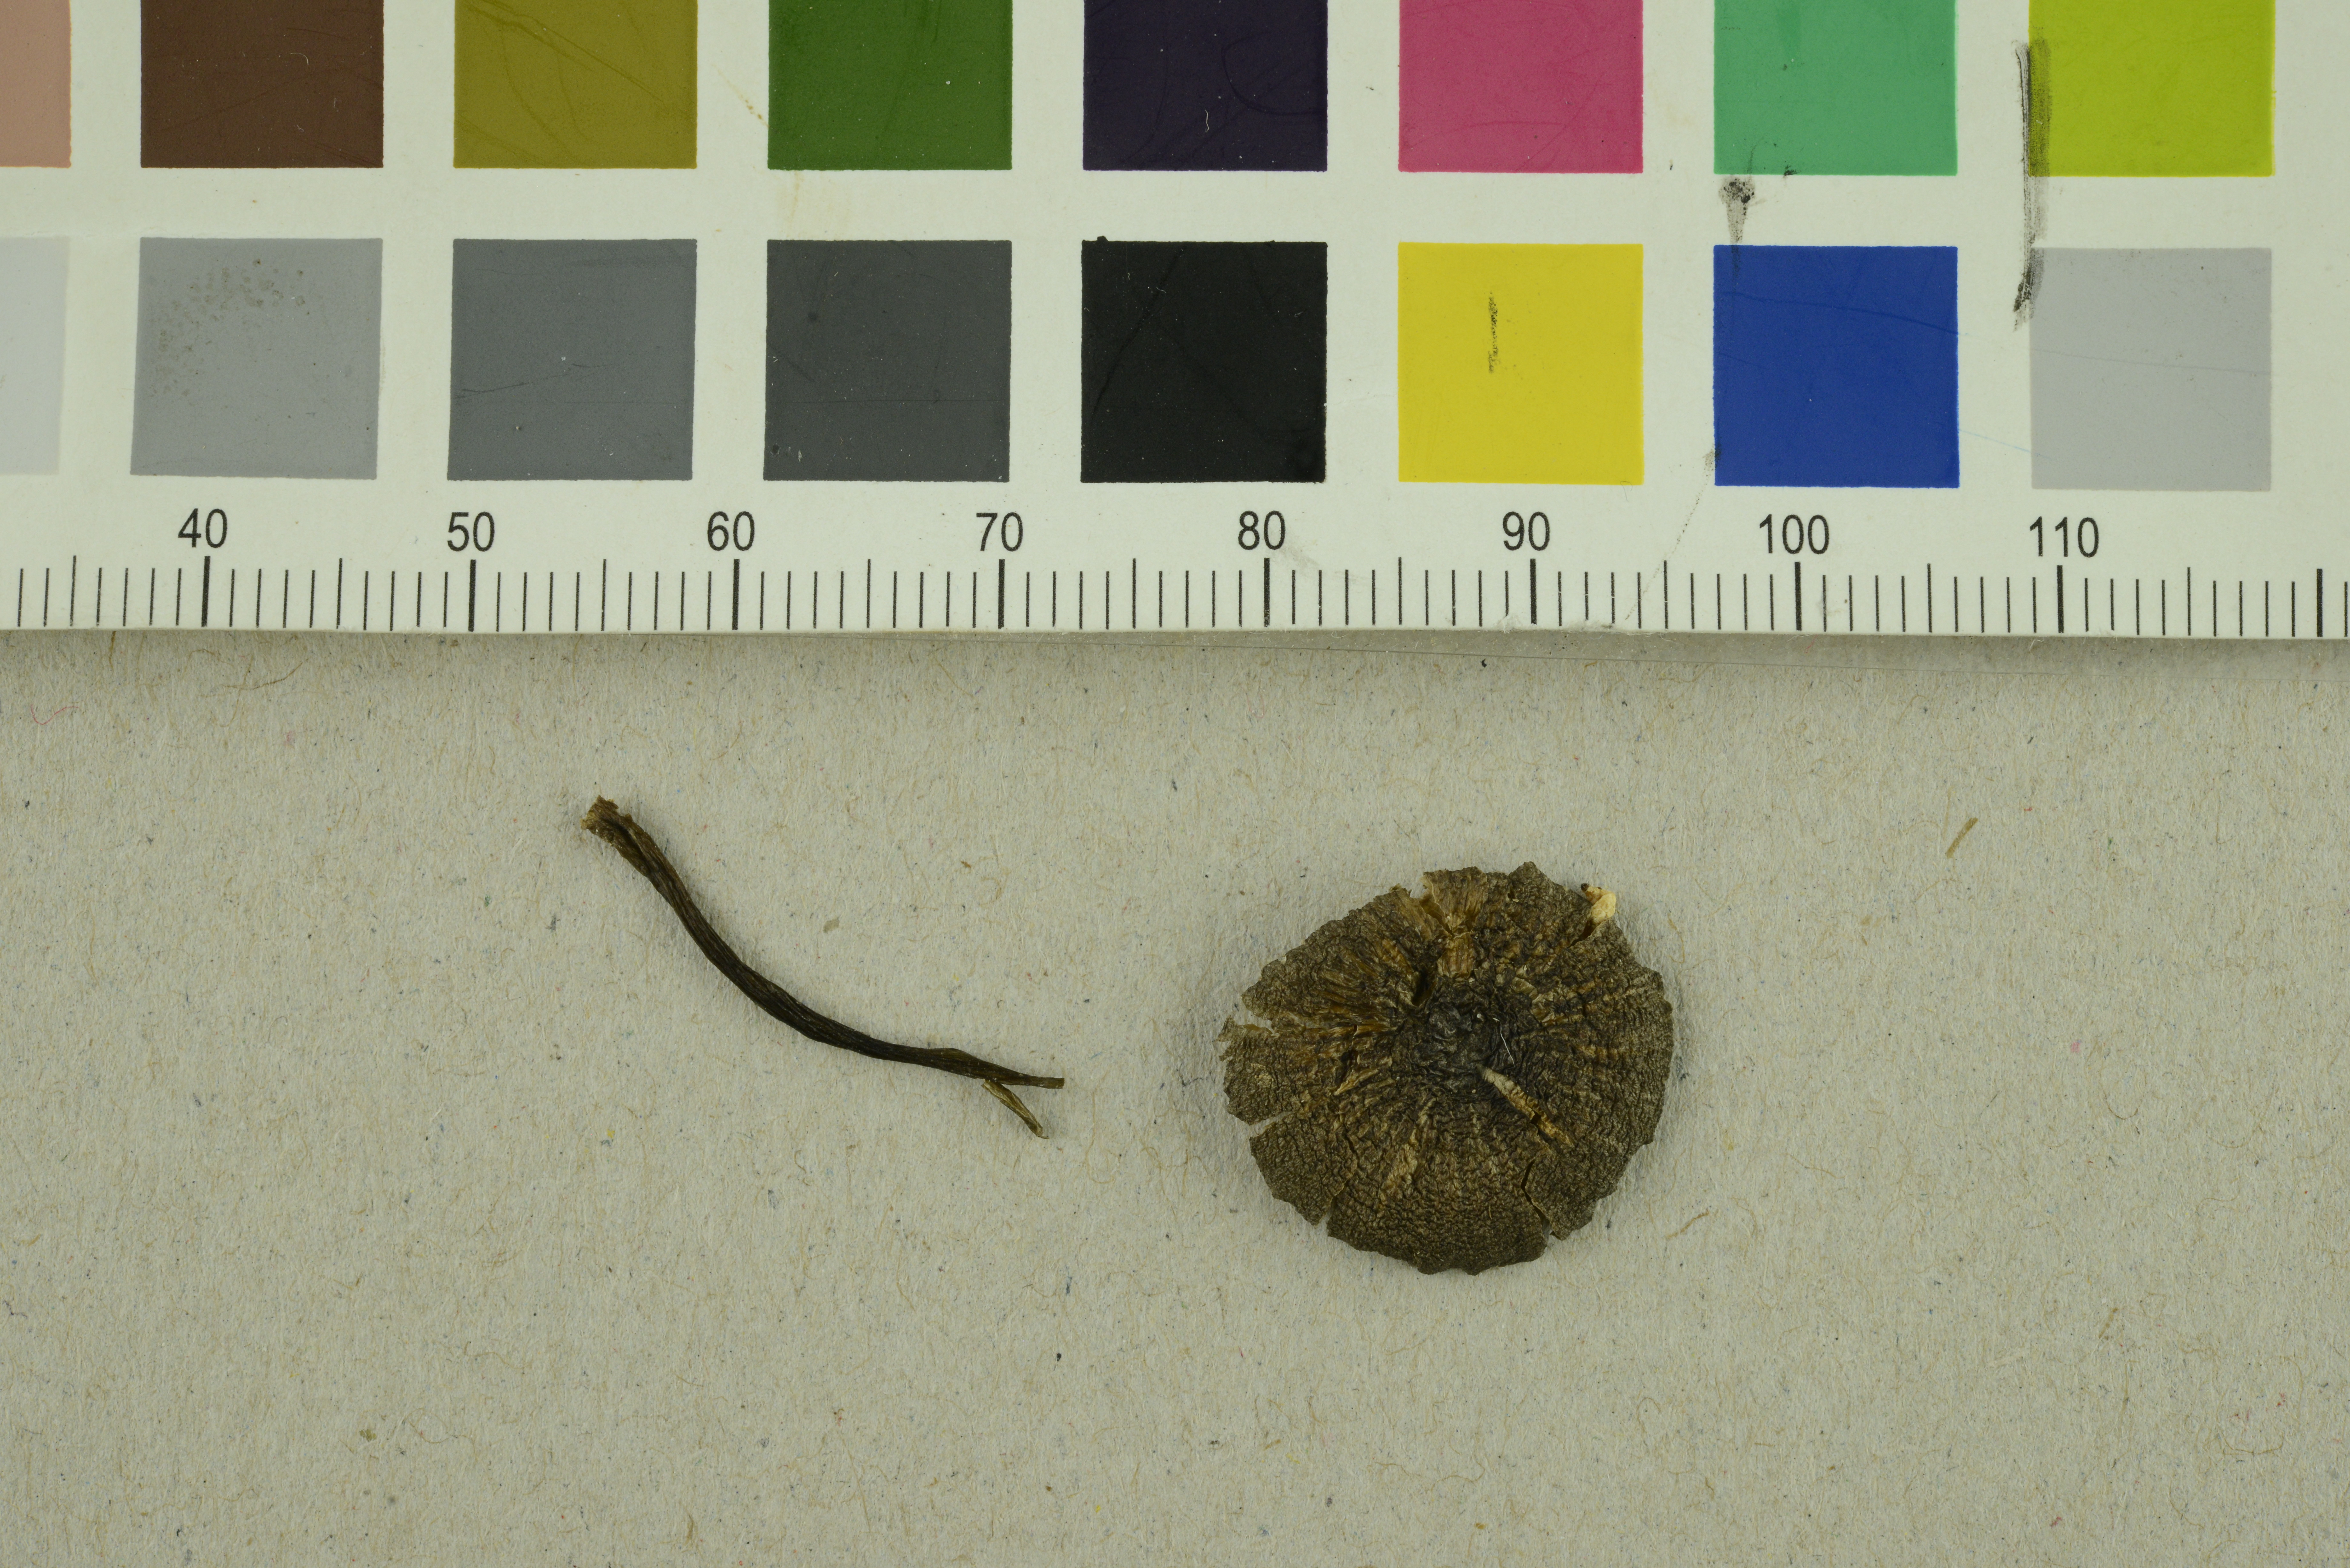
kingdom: Fungi
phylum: Basidiomycota
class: Agaricomycetes
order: Agaricales
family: Entolomataceae
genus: Entoloma
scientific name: Entoloma atrocoeruleum
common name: Navy pinkgill
